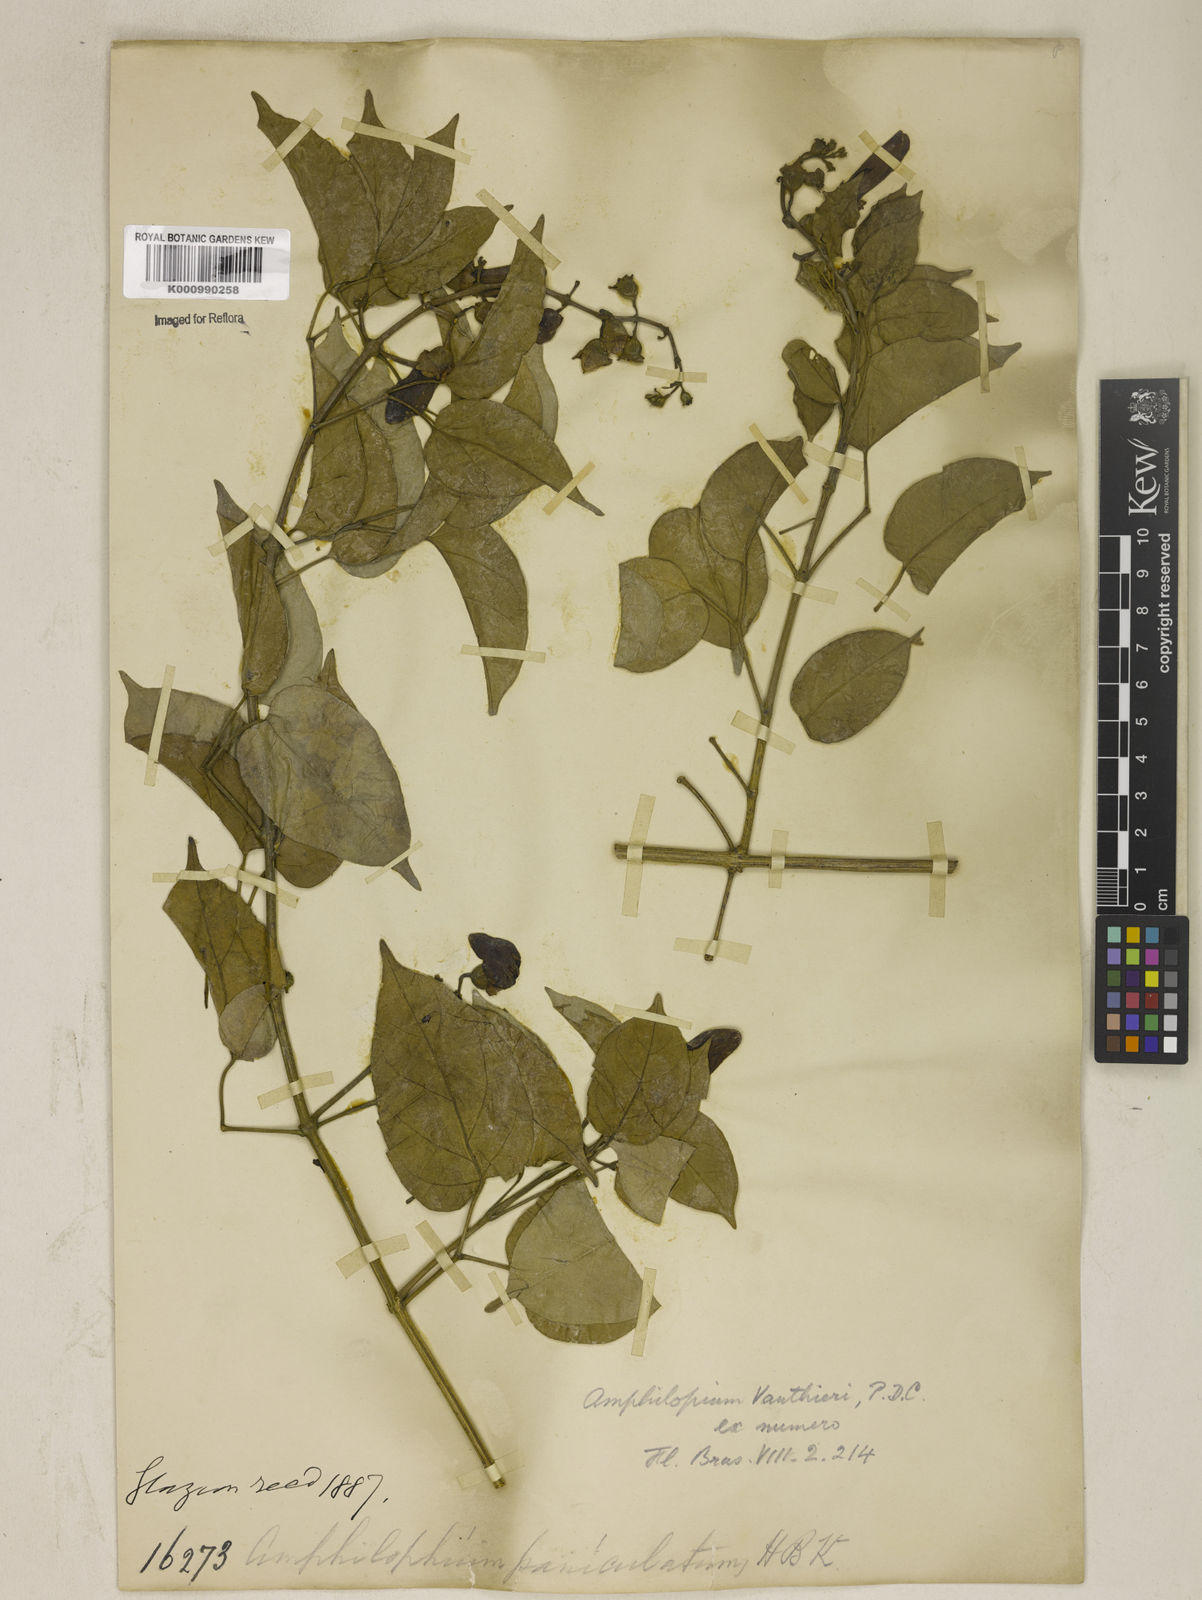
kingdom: Plantae
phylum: Tracheophyta
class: Magnoliopsida
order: Lamiales
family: Bignoniaceae
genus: Amphilophium
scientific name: Amphilophium paniculatum
